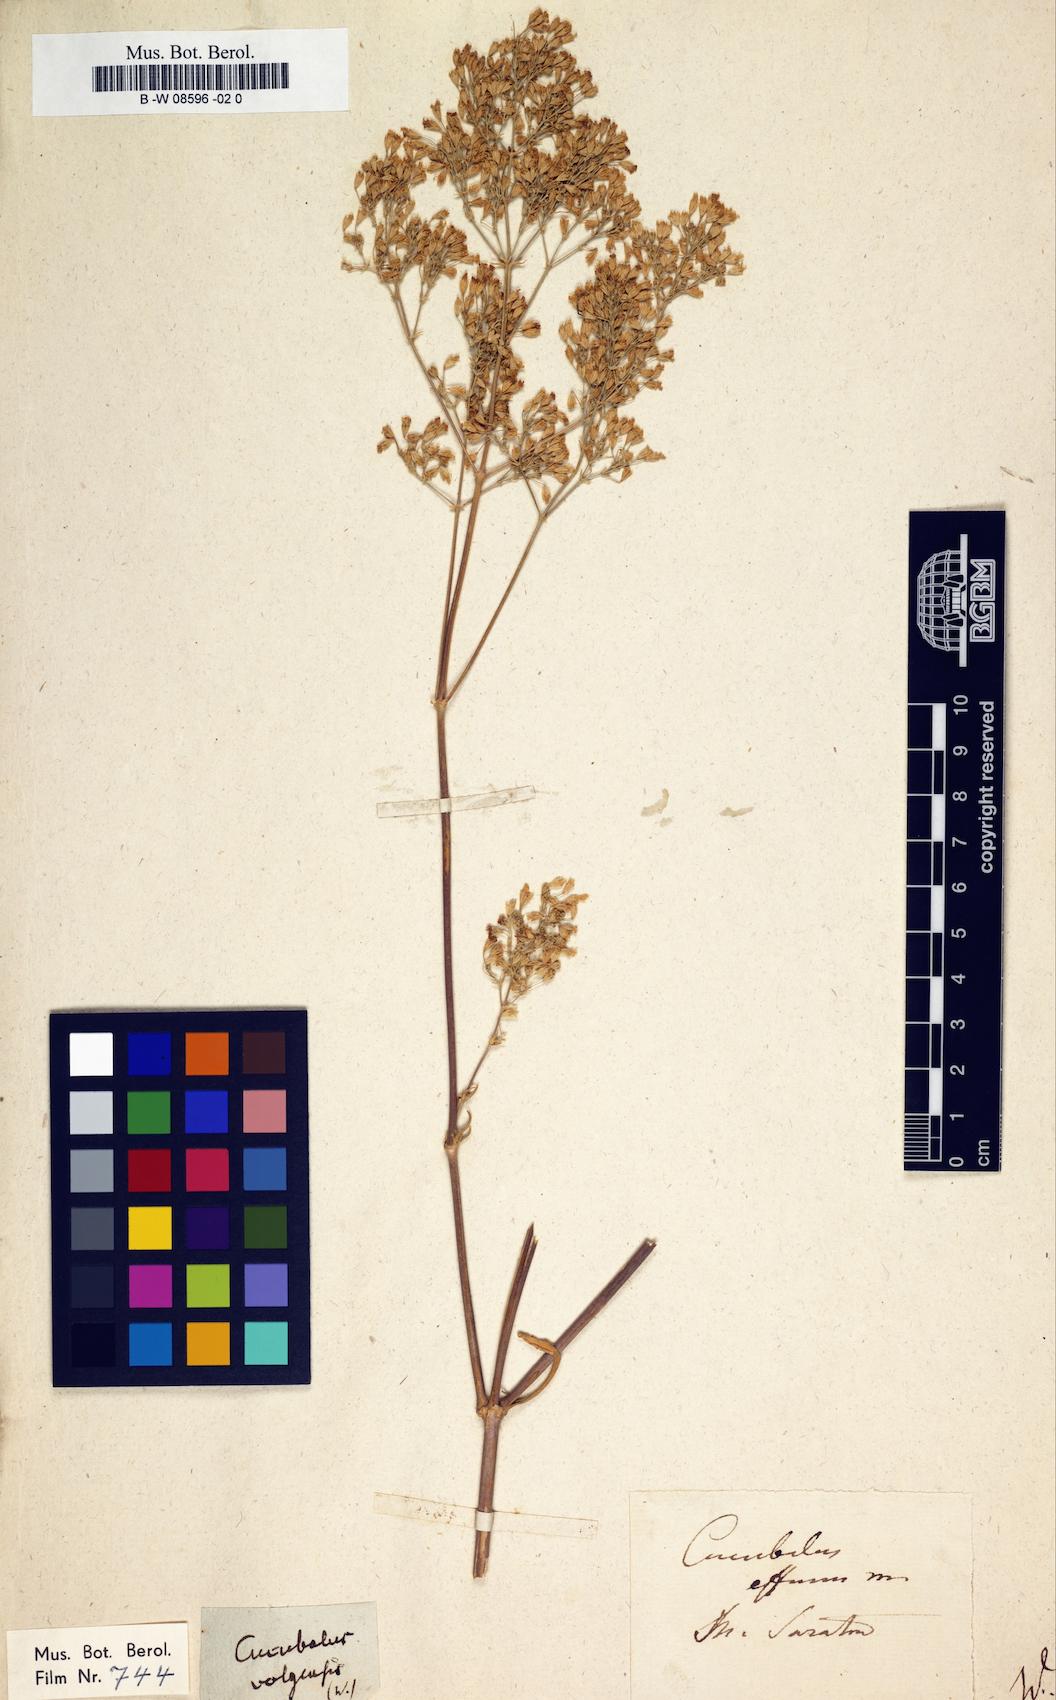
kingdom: Animalia
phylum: Cnidaria
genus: Cucubalus
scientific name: Cucubalus
